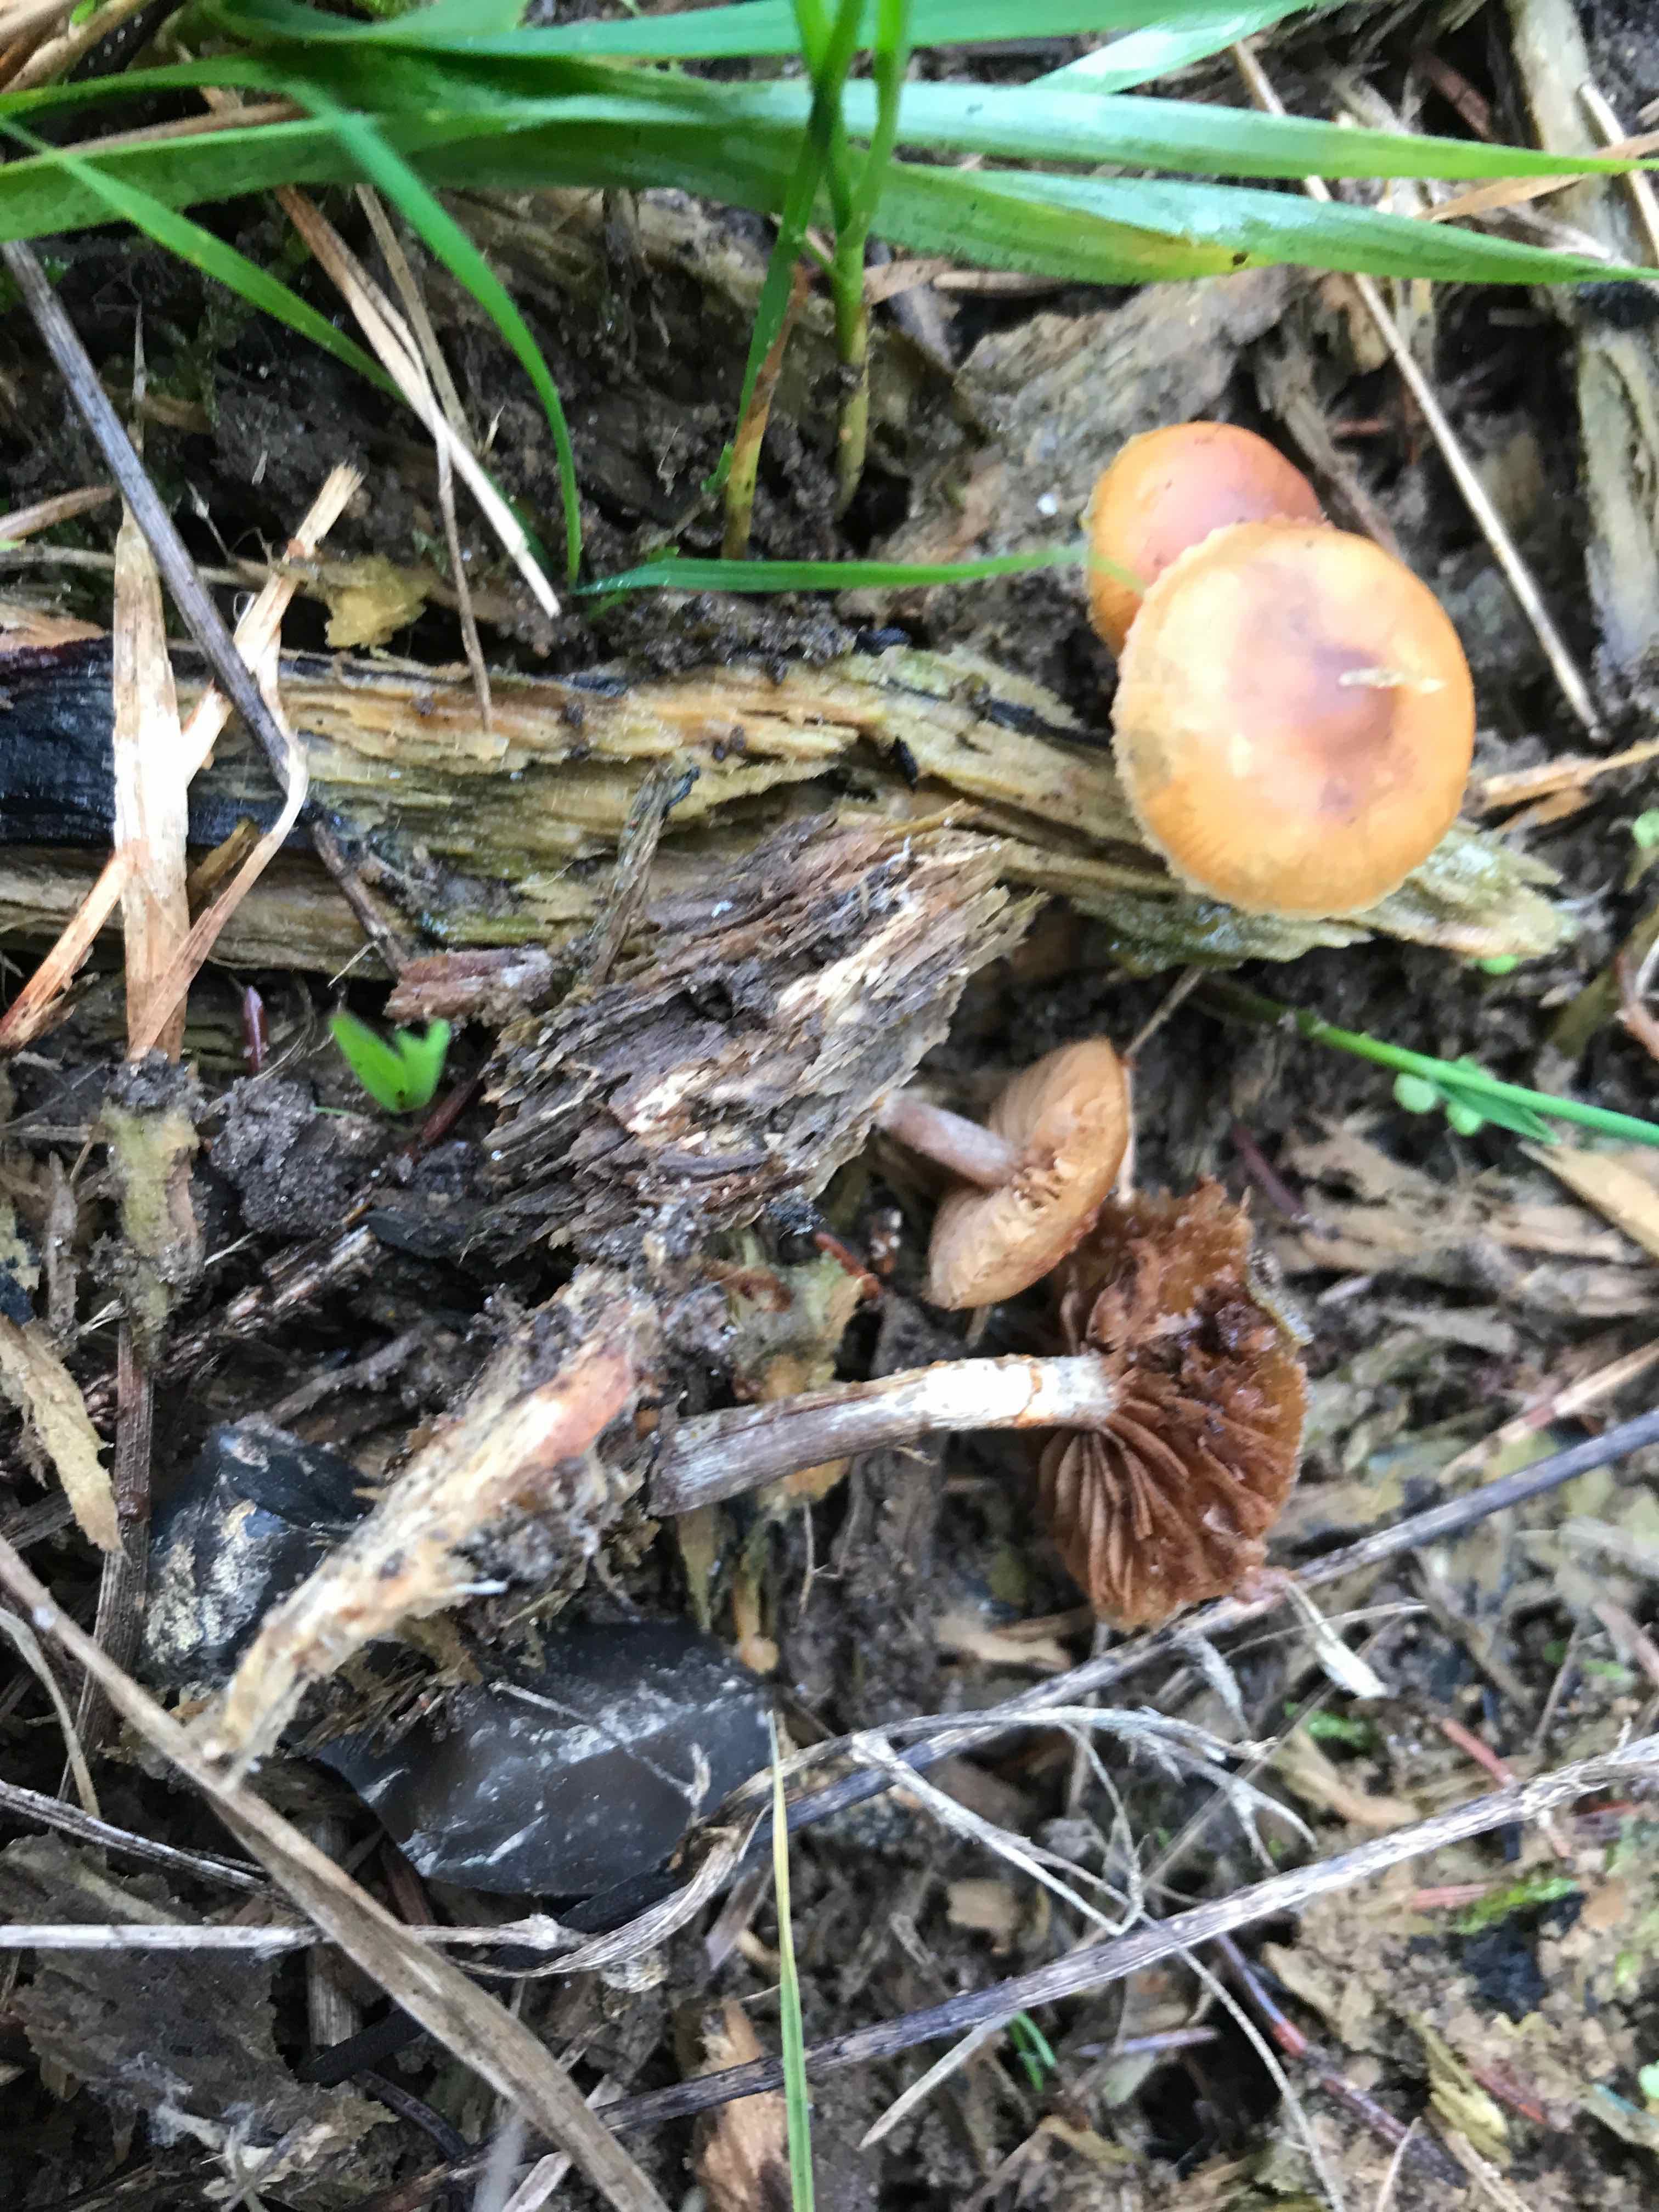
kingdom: Fungi
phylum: Basidiomycota
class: Agaricomycetes
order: Agaricales
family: Hymenogastraceae
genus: Galerina
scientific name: Galerina
